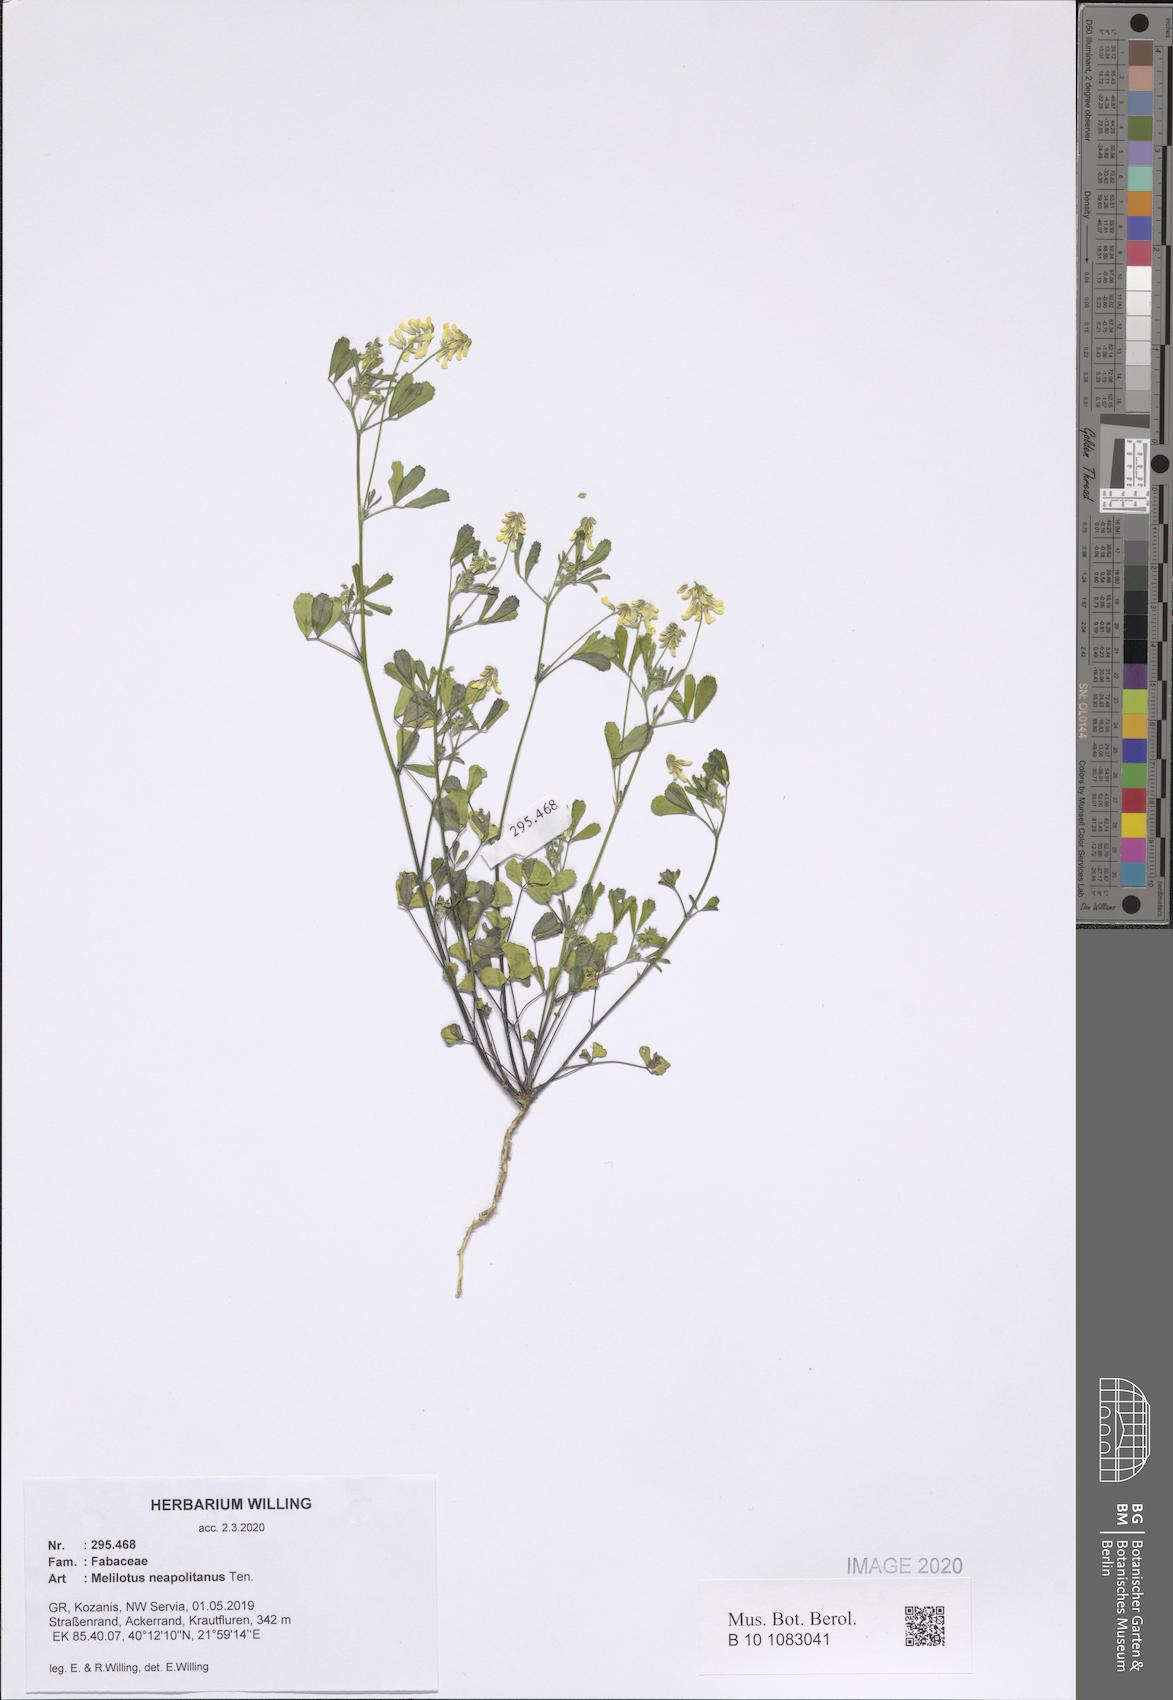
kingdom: Plantae
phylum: Tracheophyta
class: Magnoliopsida
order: Fabales
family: Fabaceae
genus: Melilotus
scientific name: Melilotus neapolitanus
